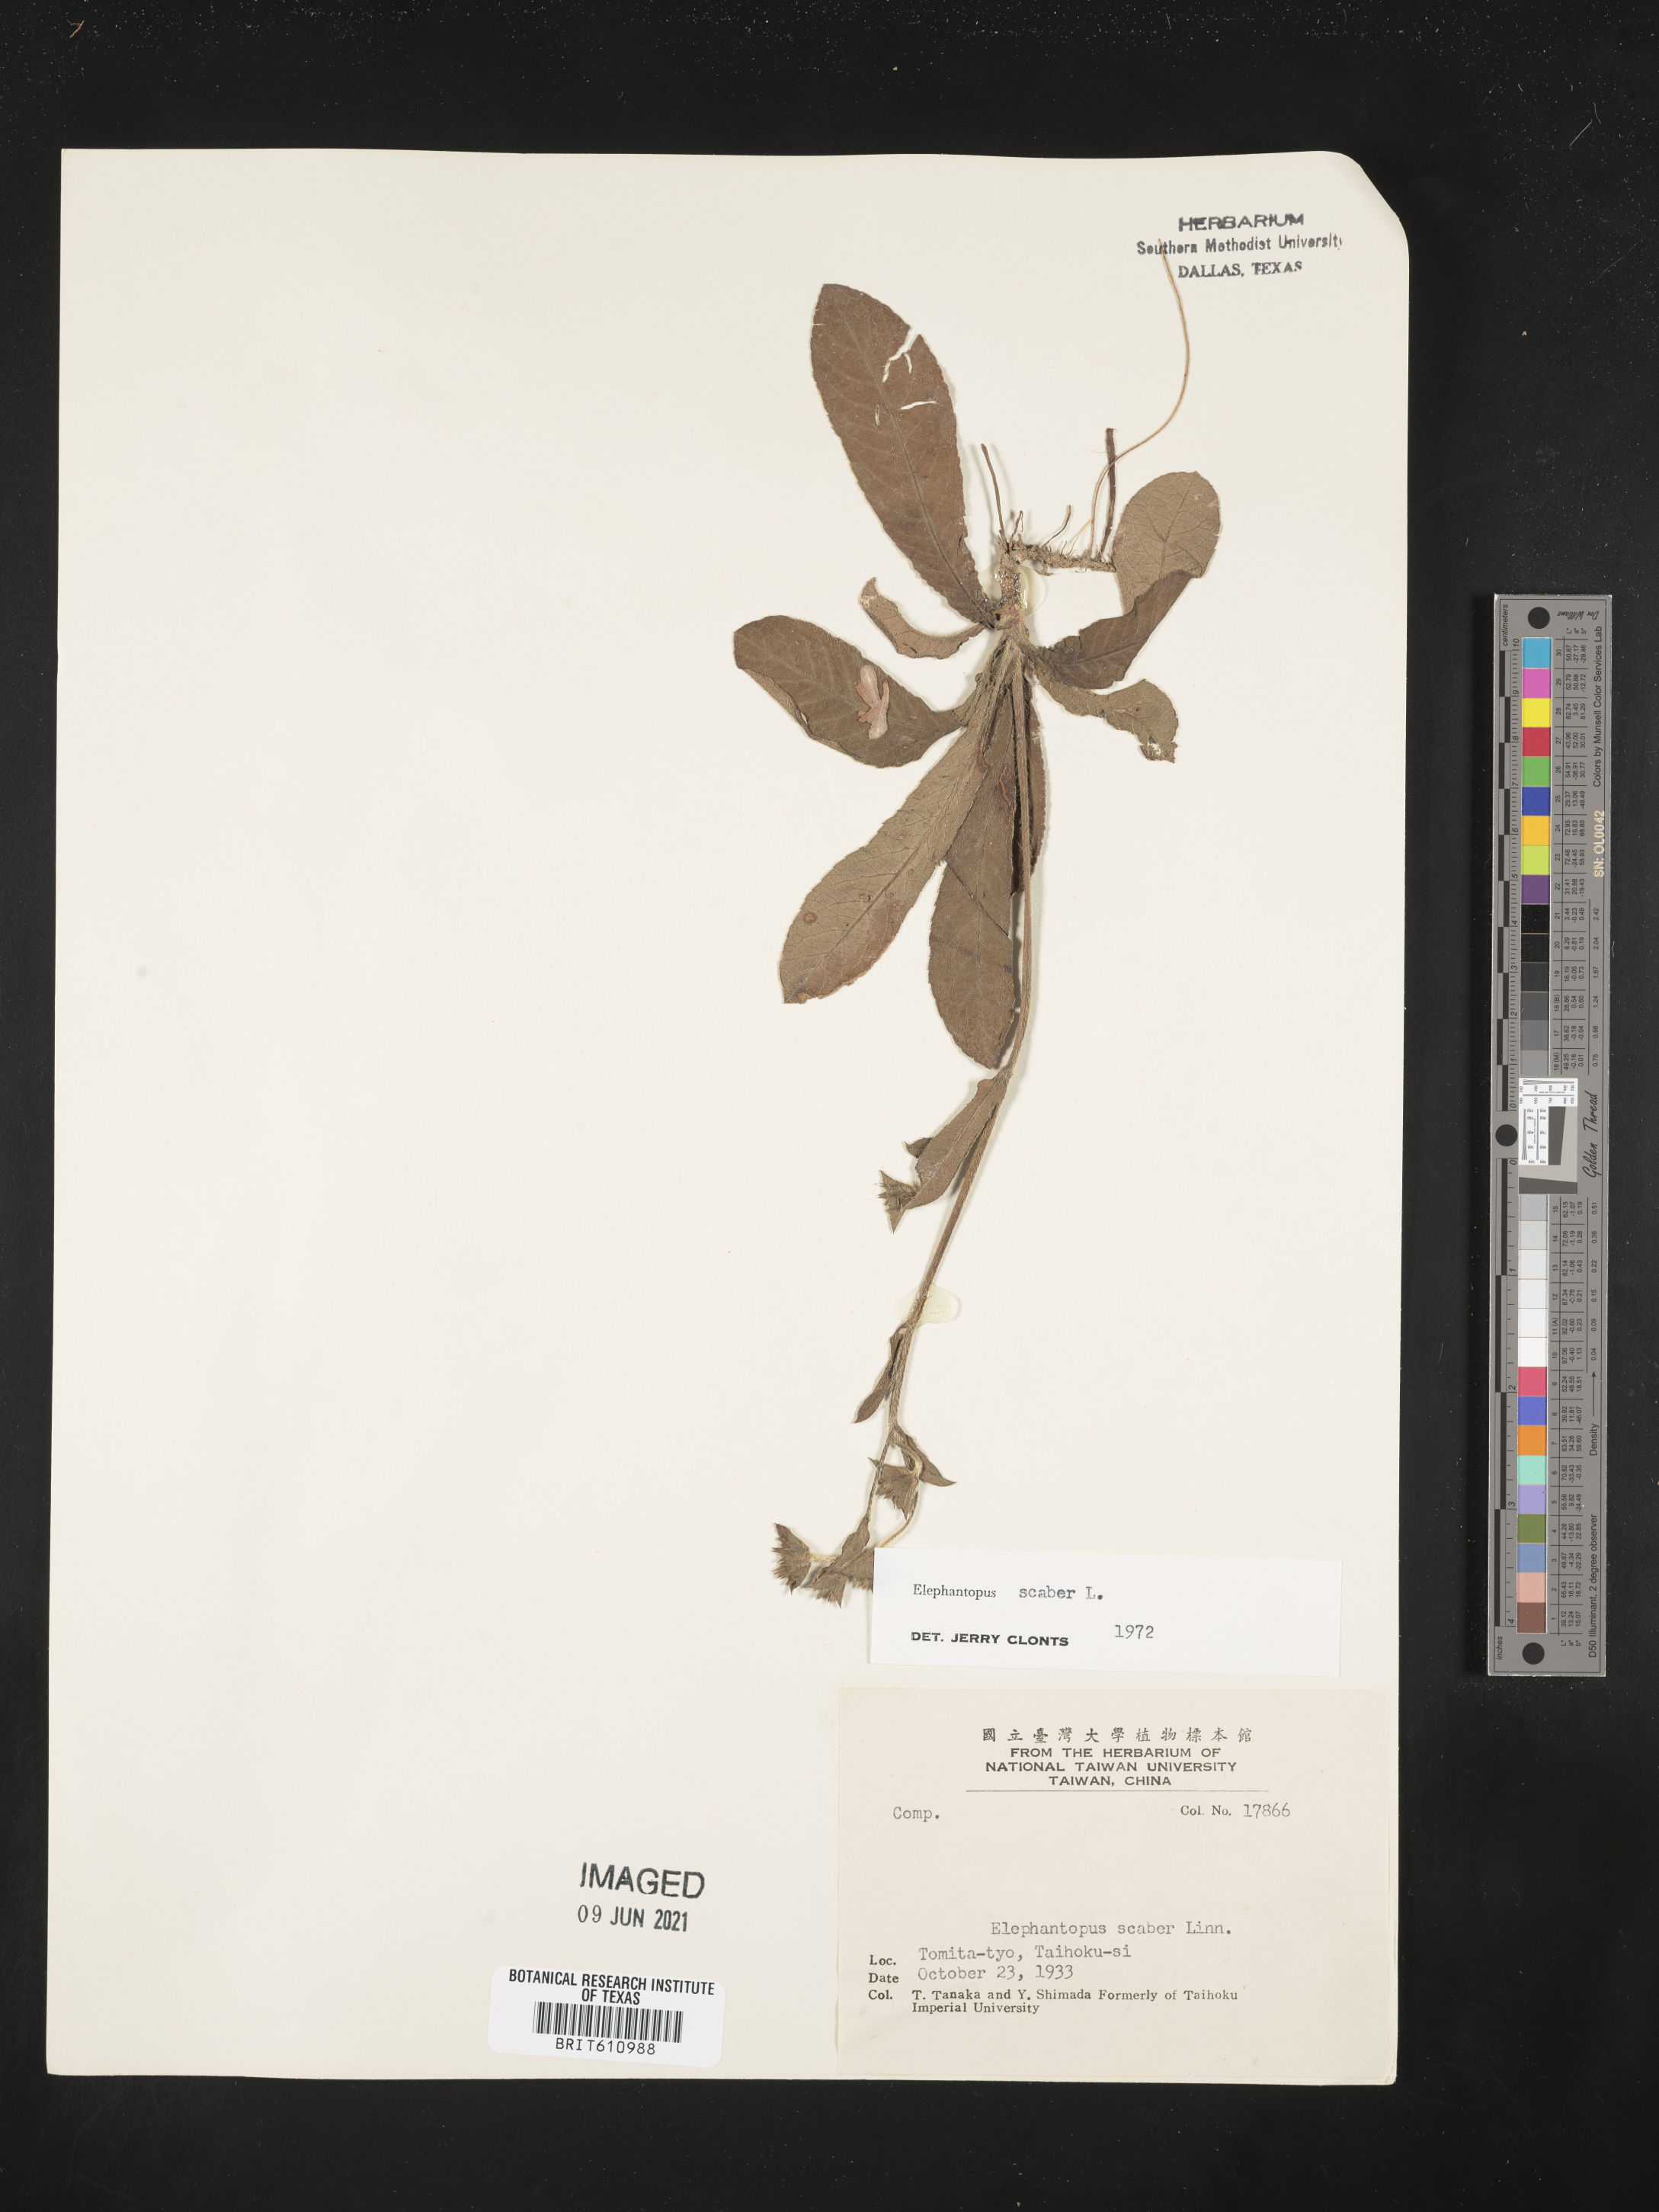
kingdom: Plantae
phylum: Tracheophyta
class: Magnoliopsida
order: Asterales
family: Asteraceae
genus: Elephantopus
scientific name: Elephantopus scaber
